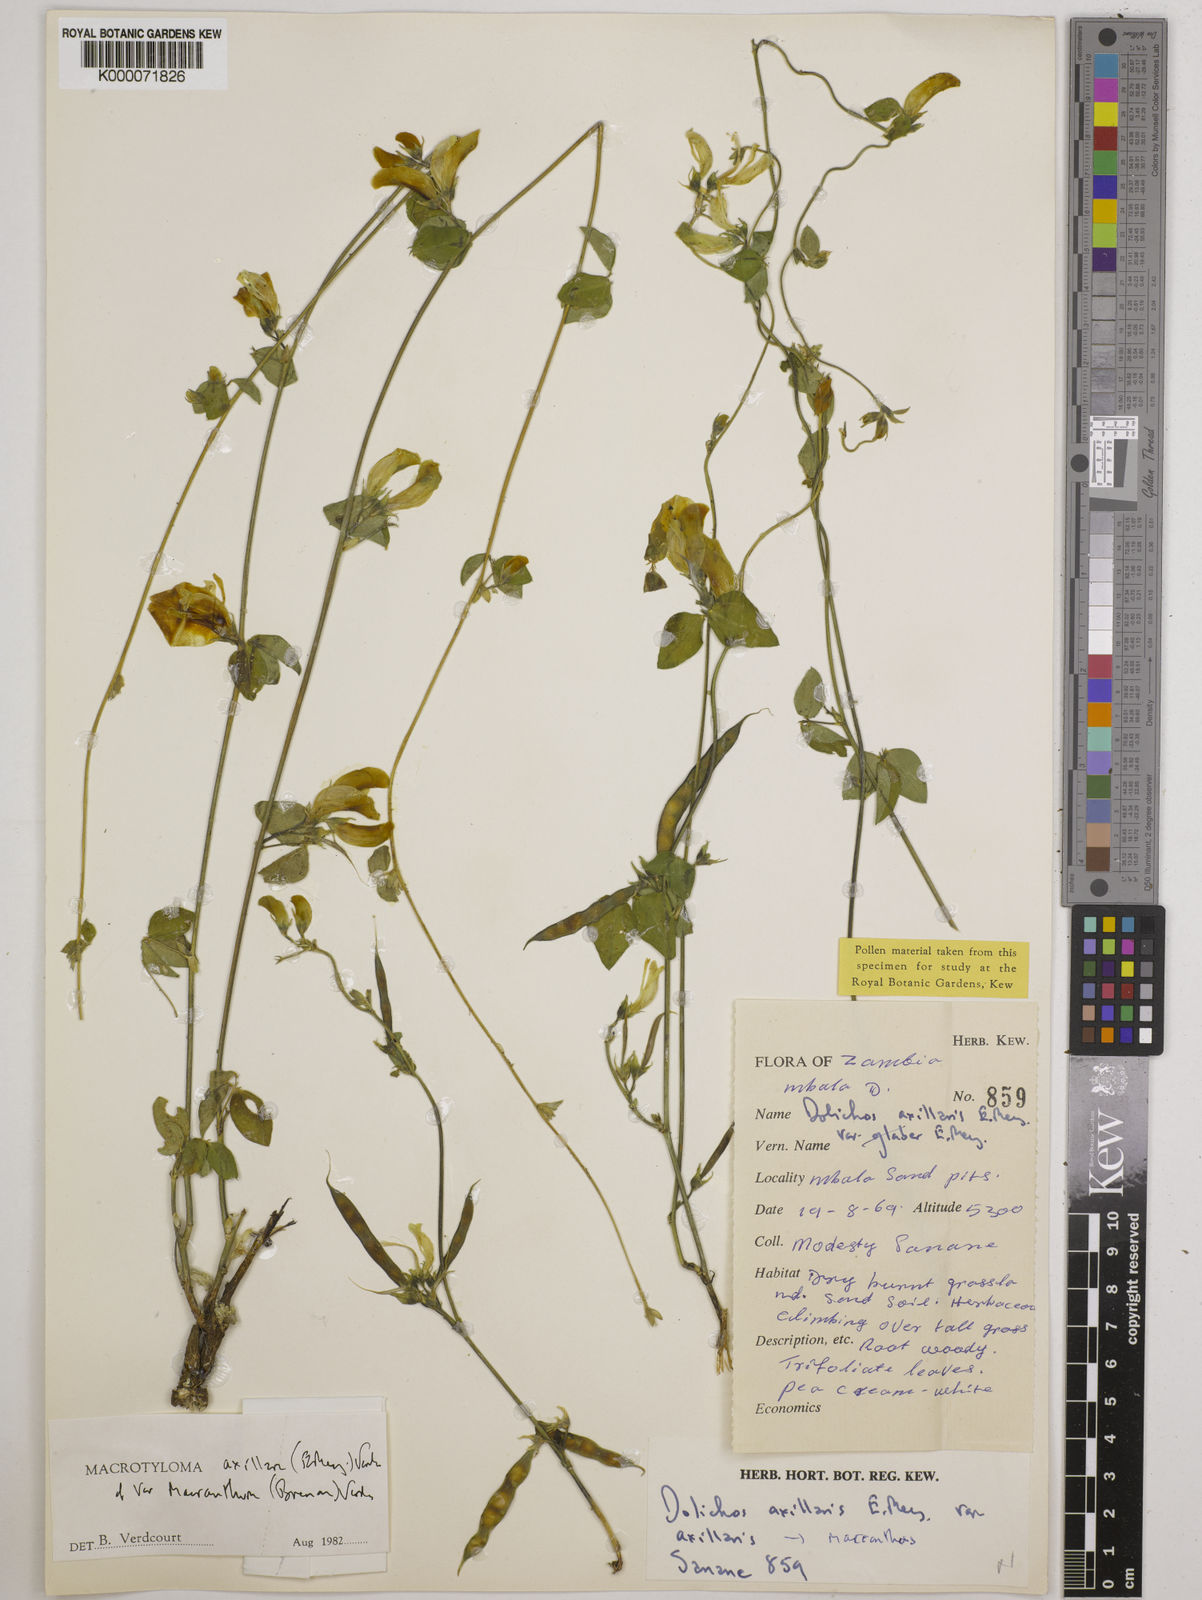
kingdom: Plantae
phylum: Tracheophyta
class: Magnoliopsida
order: Fabales
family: Fabaceae
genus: Macrotyloma
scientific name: Macrotyloma axillare
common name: Perennial horsegram
